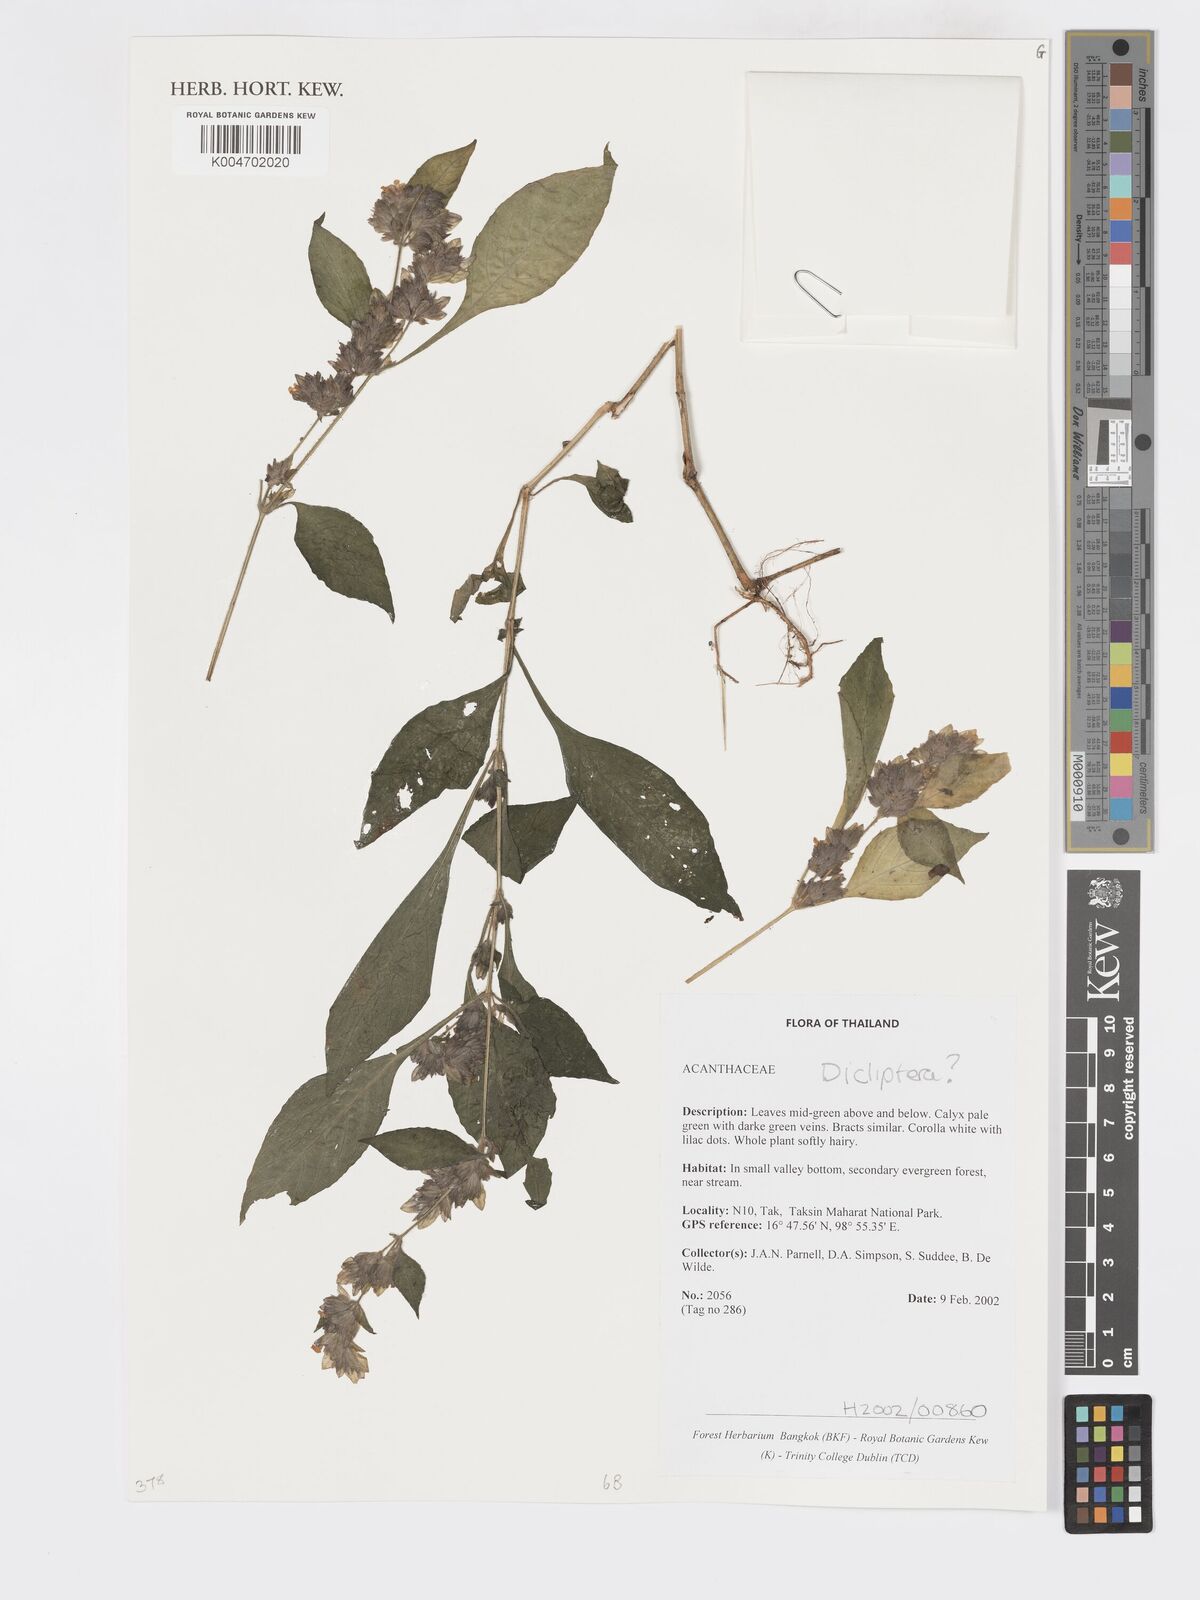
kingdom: Plantae
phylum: Tracheophyta
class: Magnoliopsida
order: Lamiales
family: Acanthaceae
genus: Dicliptera
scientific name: Dicliptera
